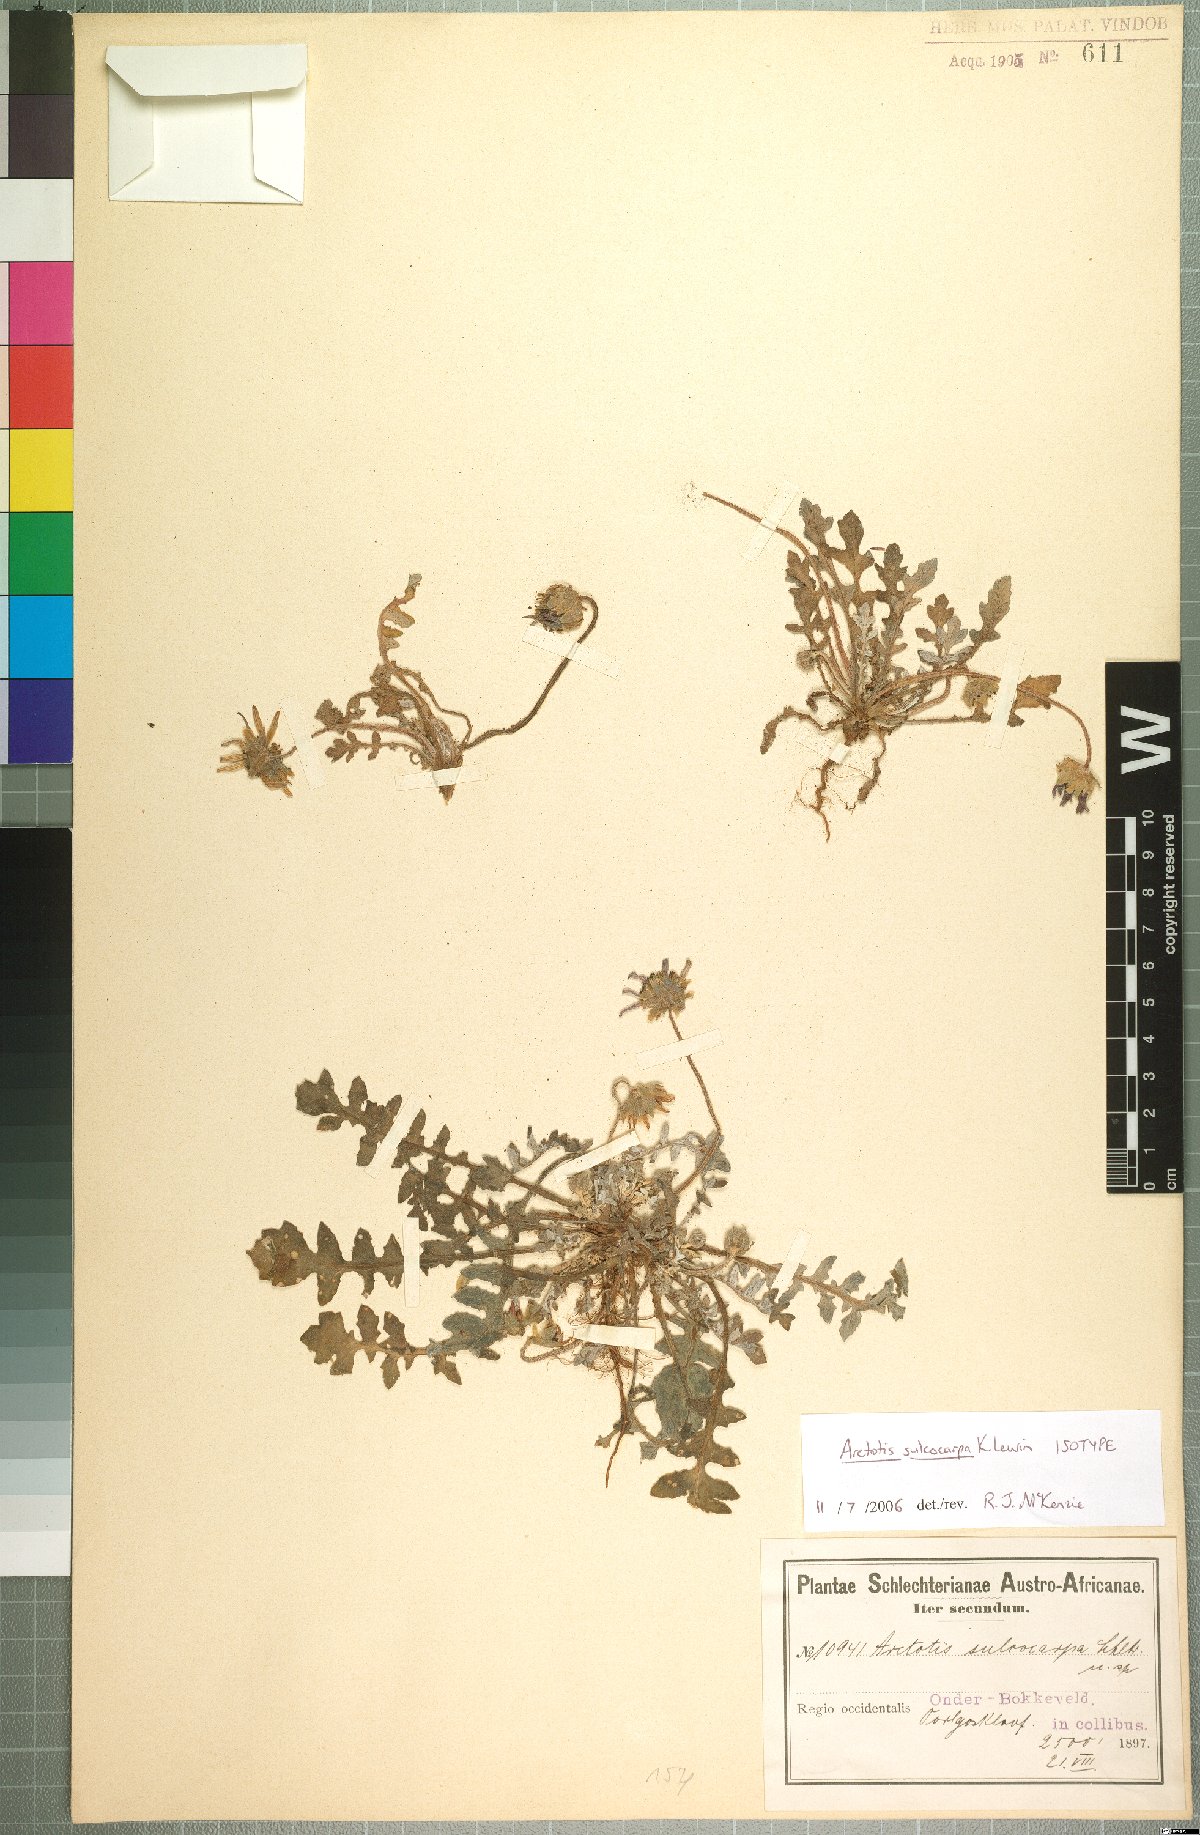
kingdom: Plantae
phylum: Tracheophyta
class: Magnoliopsida
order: Asterales
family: Asteraceae
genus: Arctotis
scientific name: Arctotis sulcocarpa
